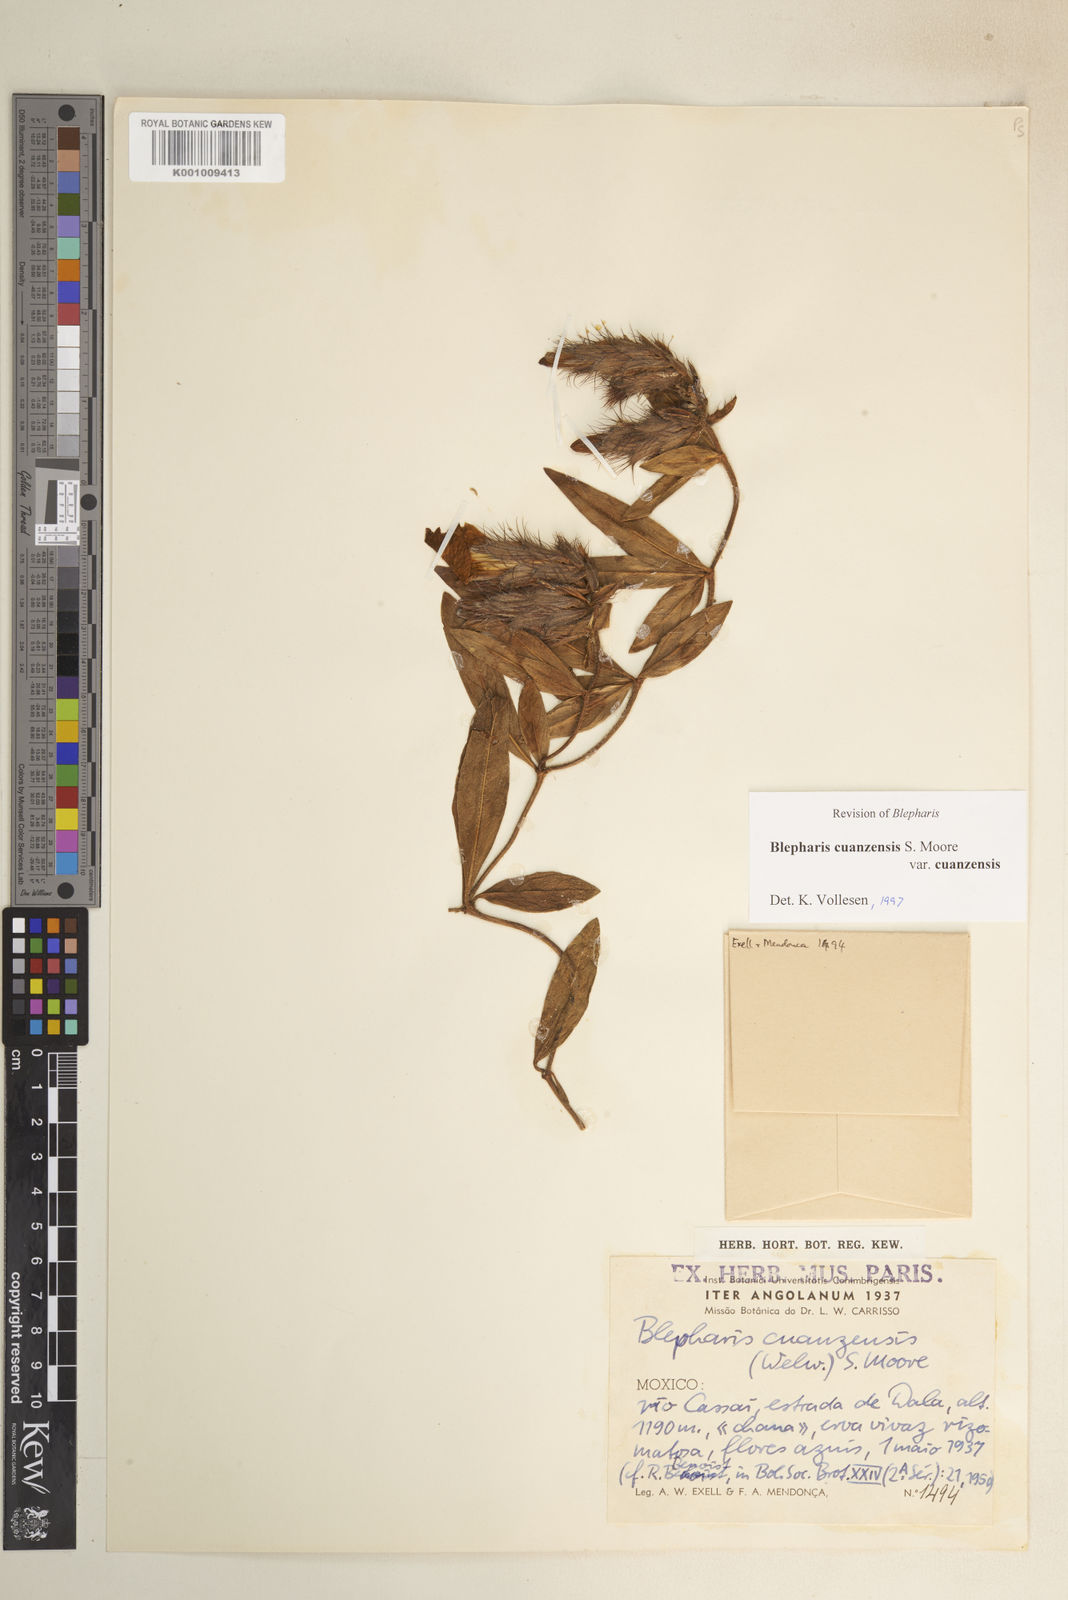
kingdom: Plantae
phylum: Tracheophyta
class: Magnoliopsida
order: Lamiales
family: Acanthaceae
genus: Blepharis
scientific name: Blepharis cuanzensis
